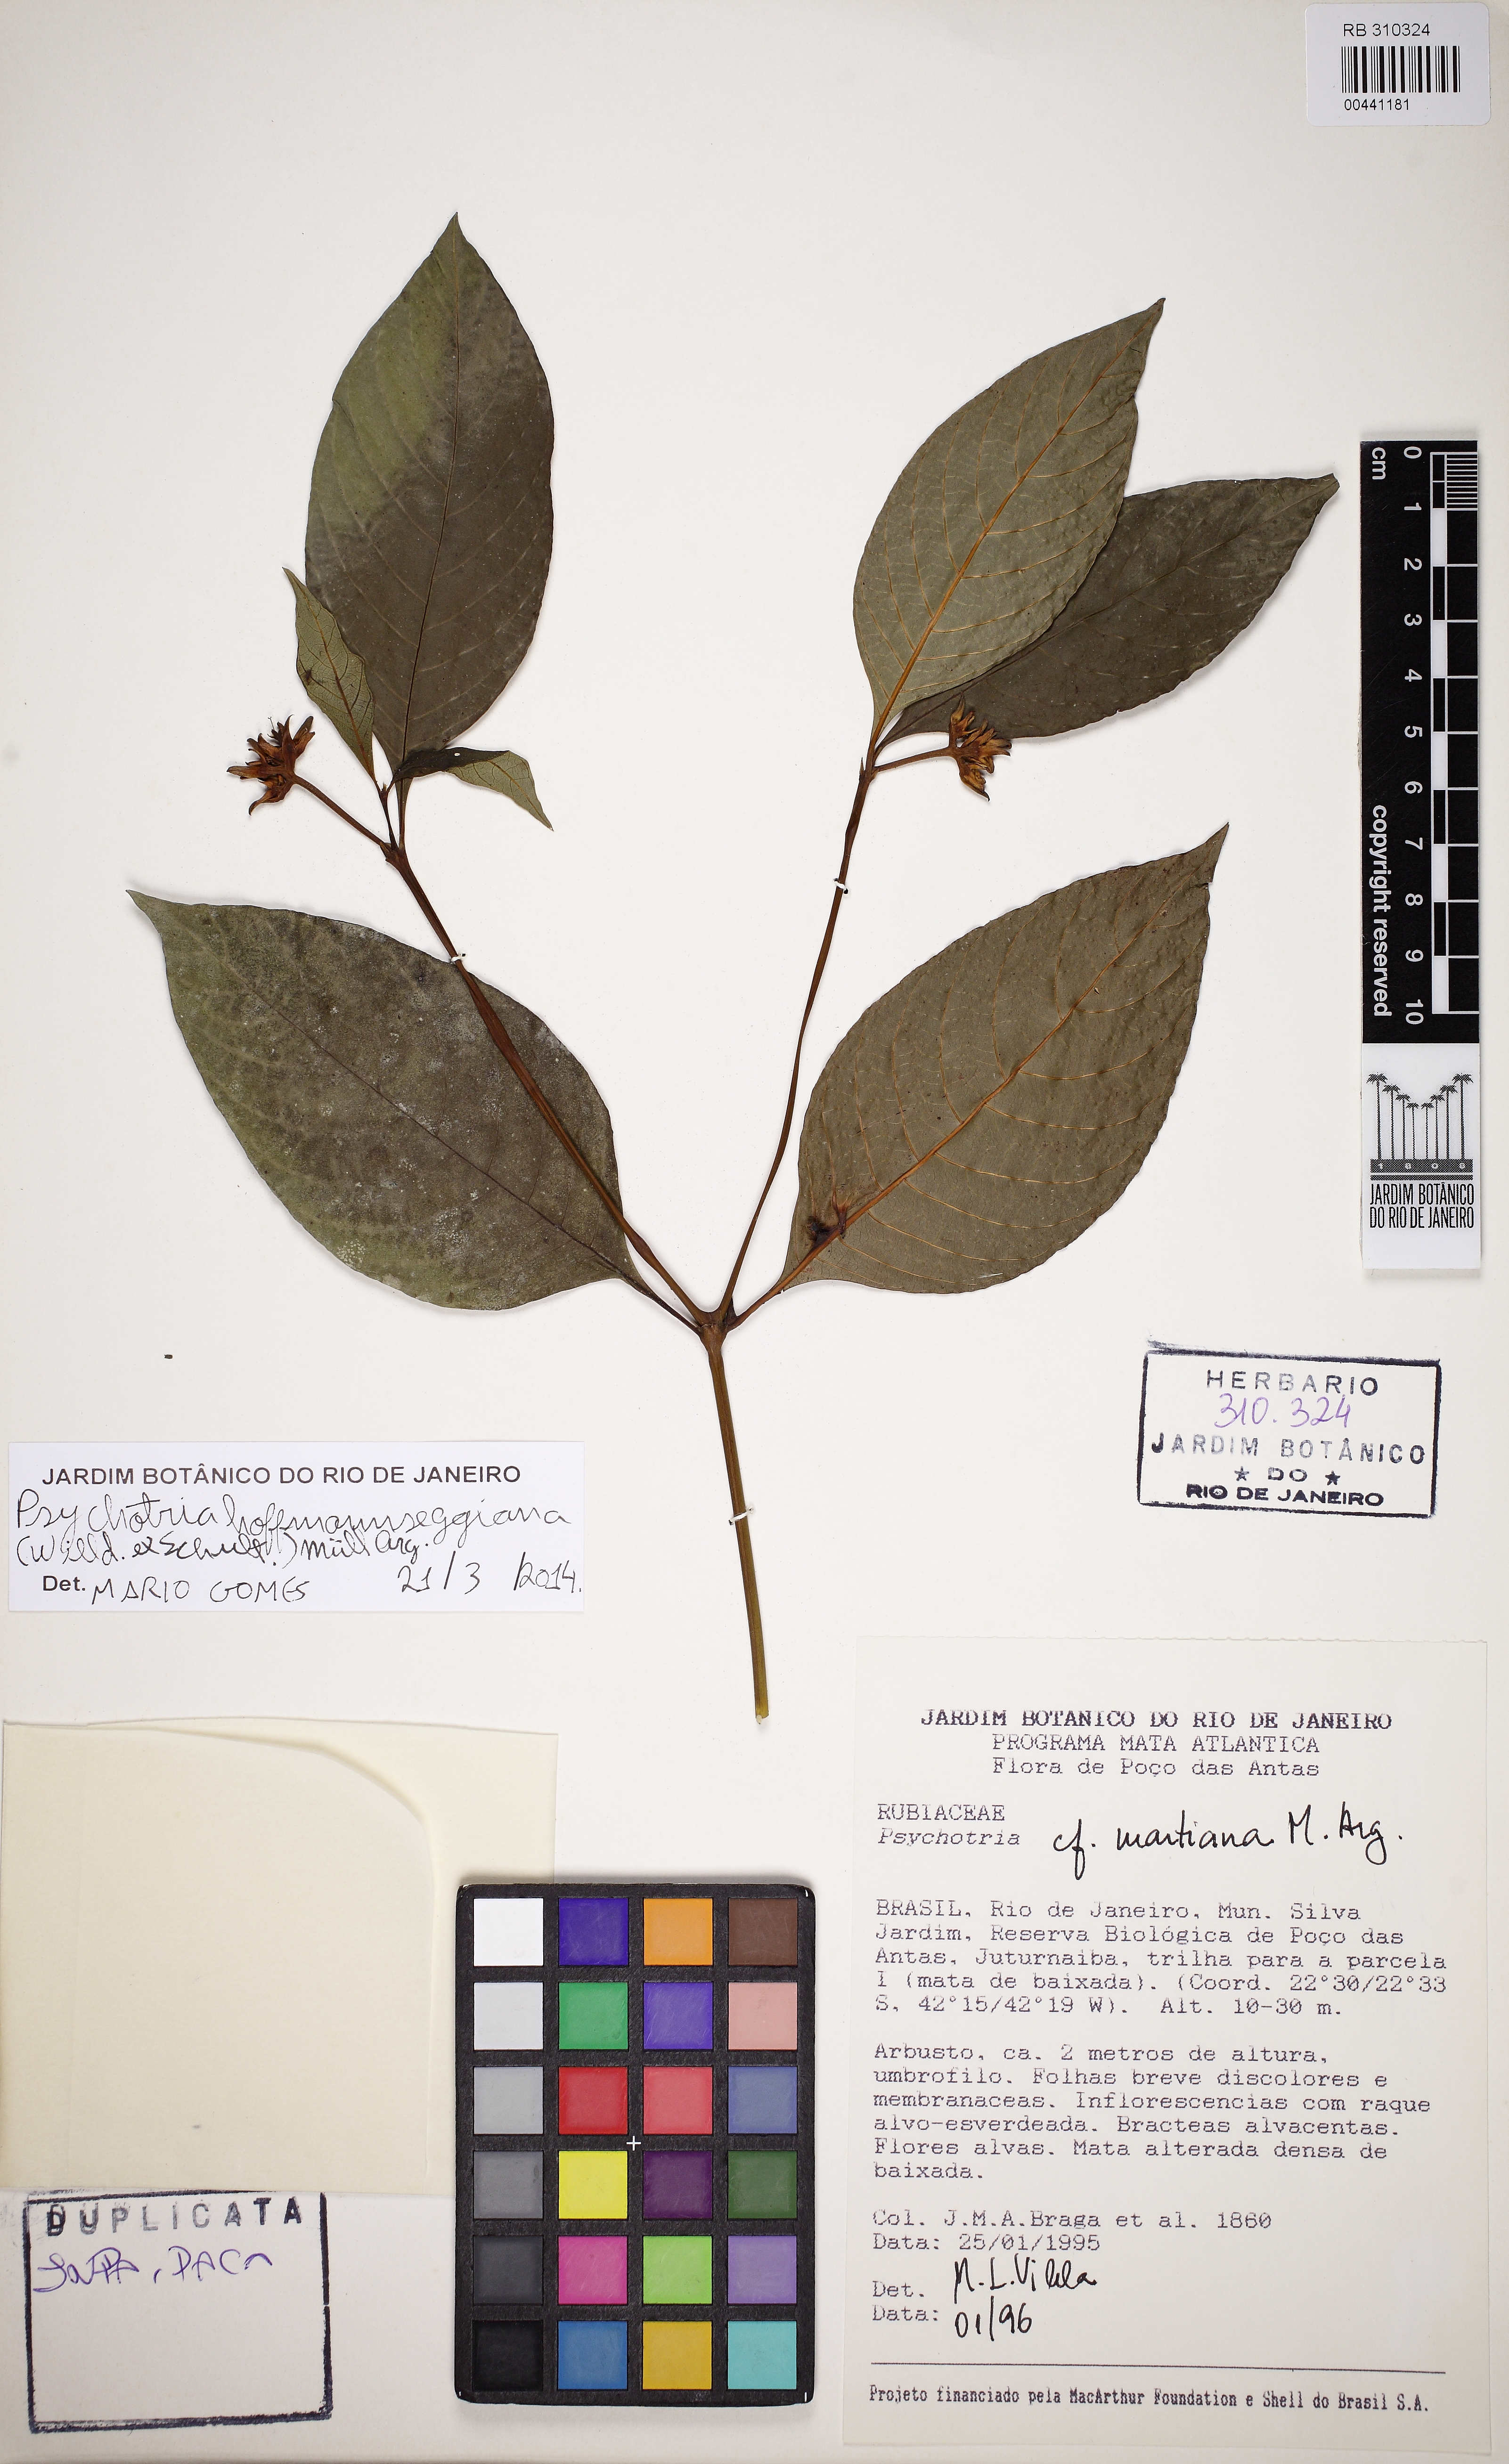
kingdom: Plantae
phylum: Tracheophyta
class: Magnoliopsida
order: Gentianales
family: Rubiaceae
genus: Palicourea
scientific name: Palicourea hoffmannseggiana
